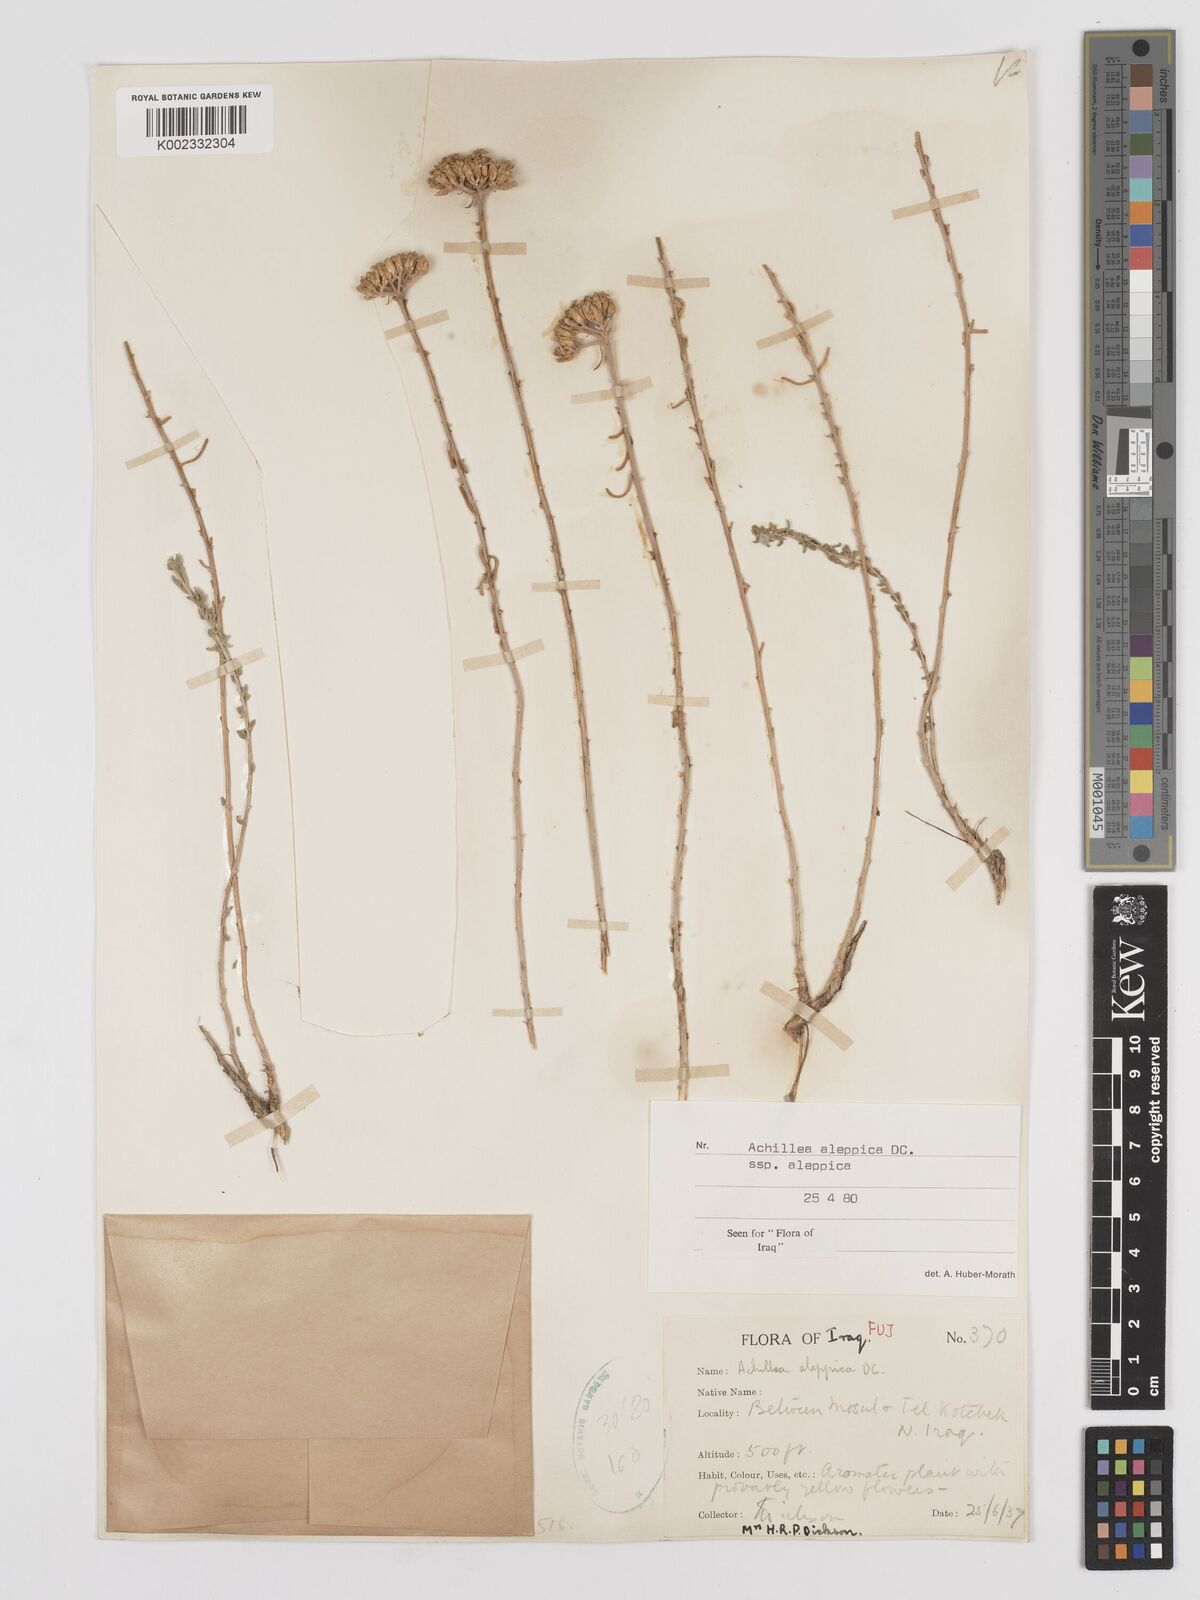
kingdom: Plantae
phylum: Tracheophyta
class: Magnoliopsida
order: Asterales
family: Asteraceae
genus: Achillea
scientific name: Achillea aleppica
